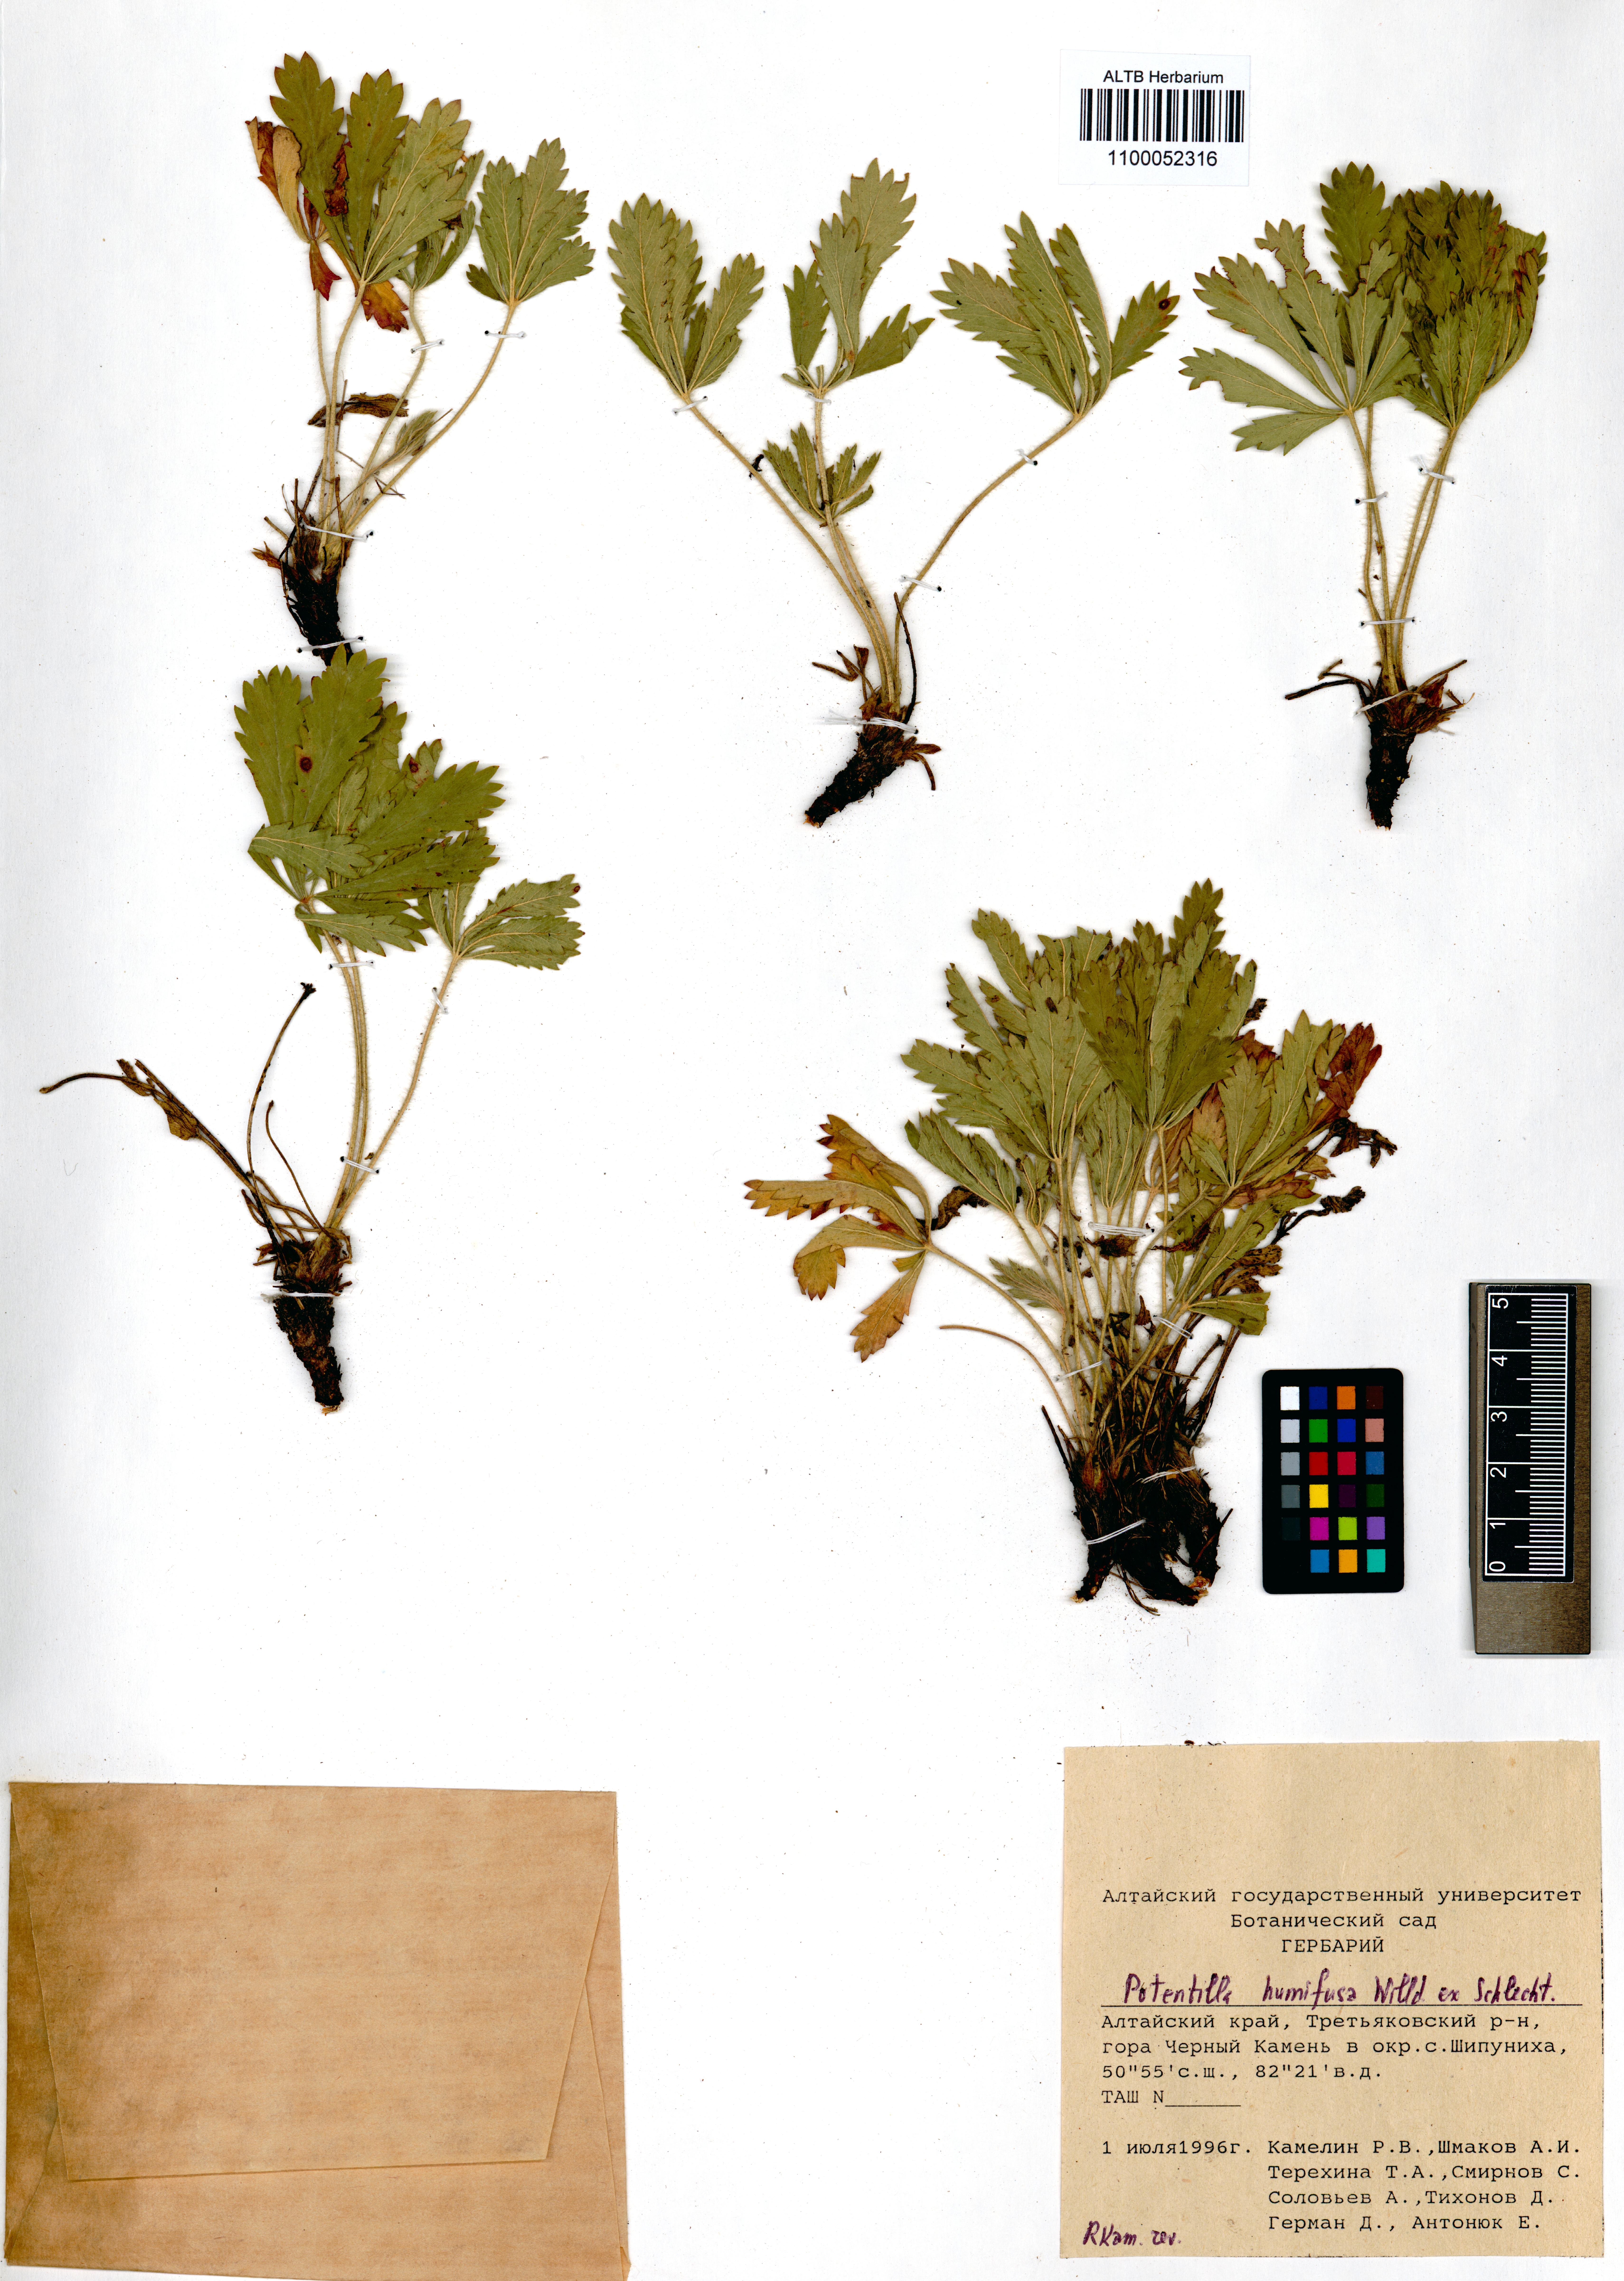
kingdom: Plantae
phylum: Tracheophyta
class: Magnoliopsida
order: Rosales
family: Rosaceae
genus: Potentilla
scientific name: Potentilla humifusa
